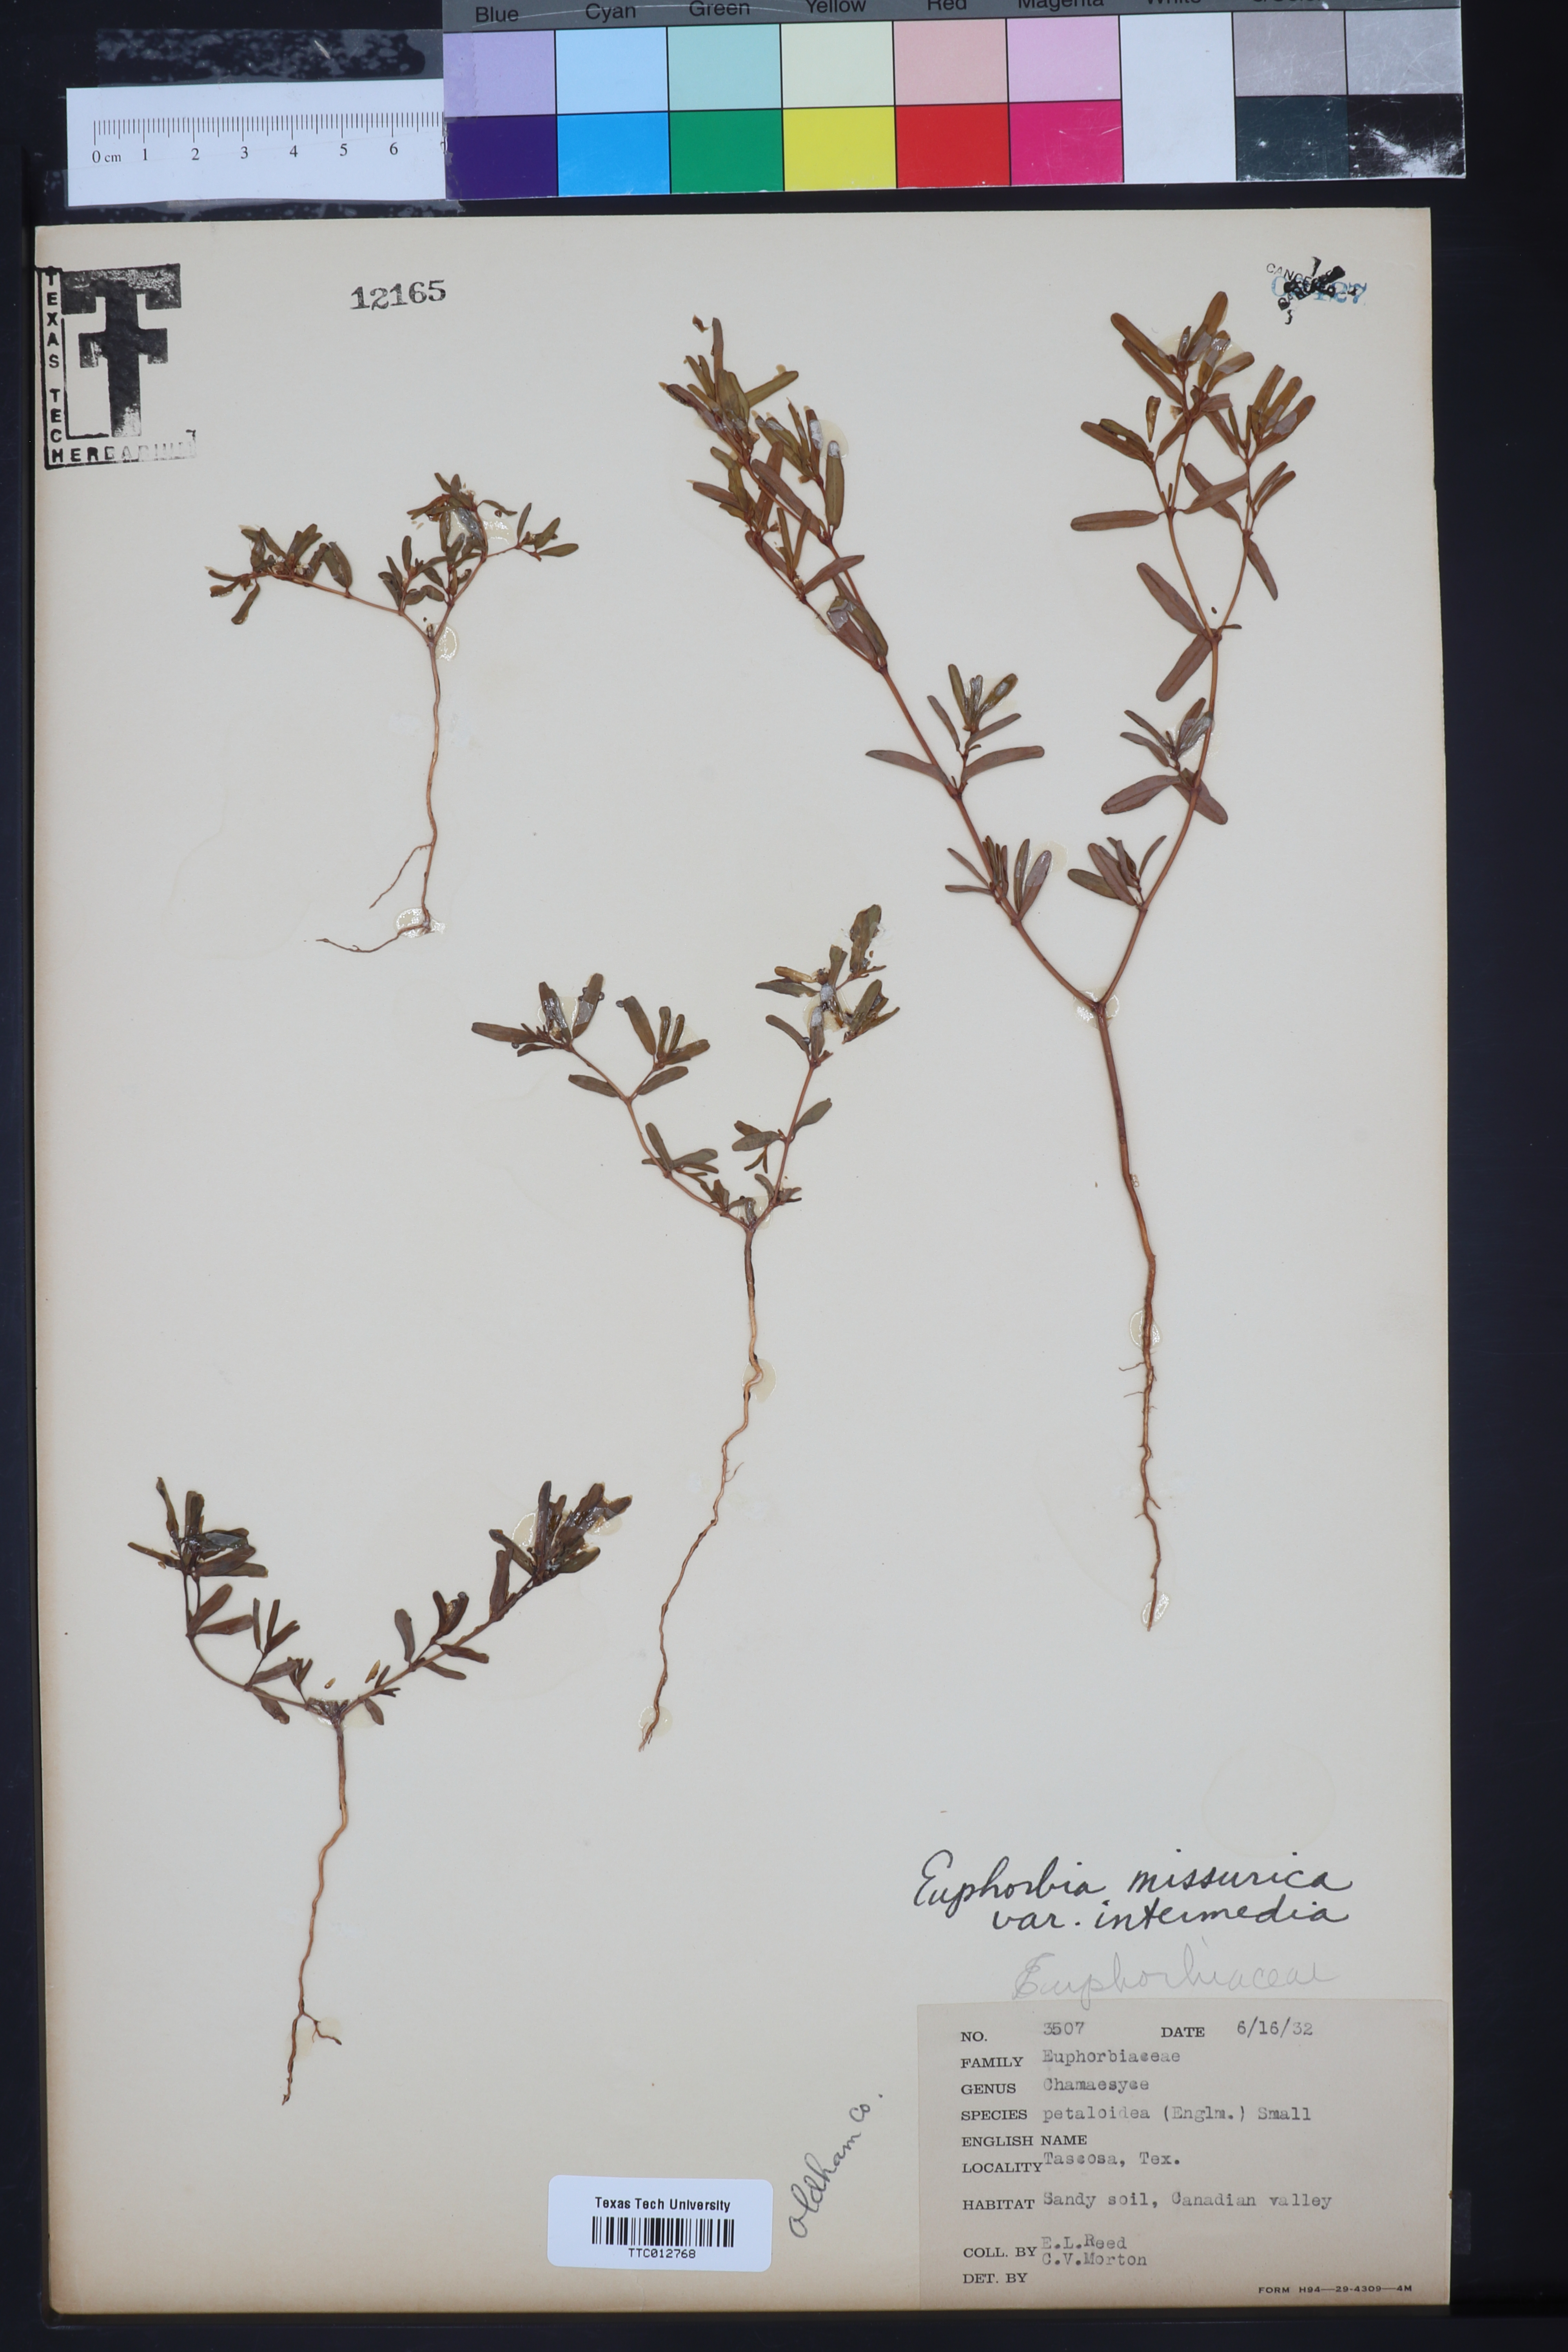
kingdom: Plantae
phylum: Tracheophyta
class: Magnoliopsida
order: Malpighiales
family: Euphorbiaceae
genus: Euphorbia
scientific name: Euphorbia missurica
